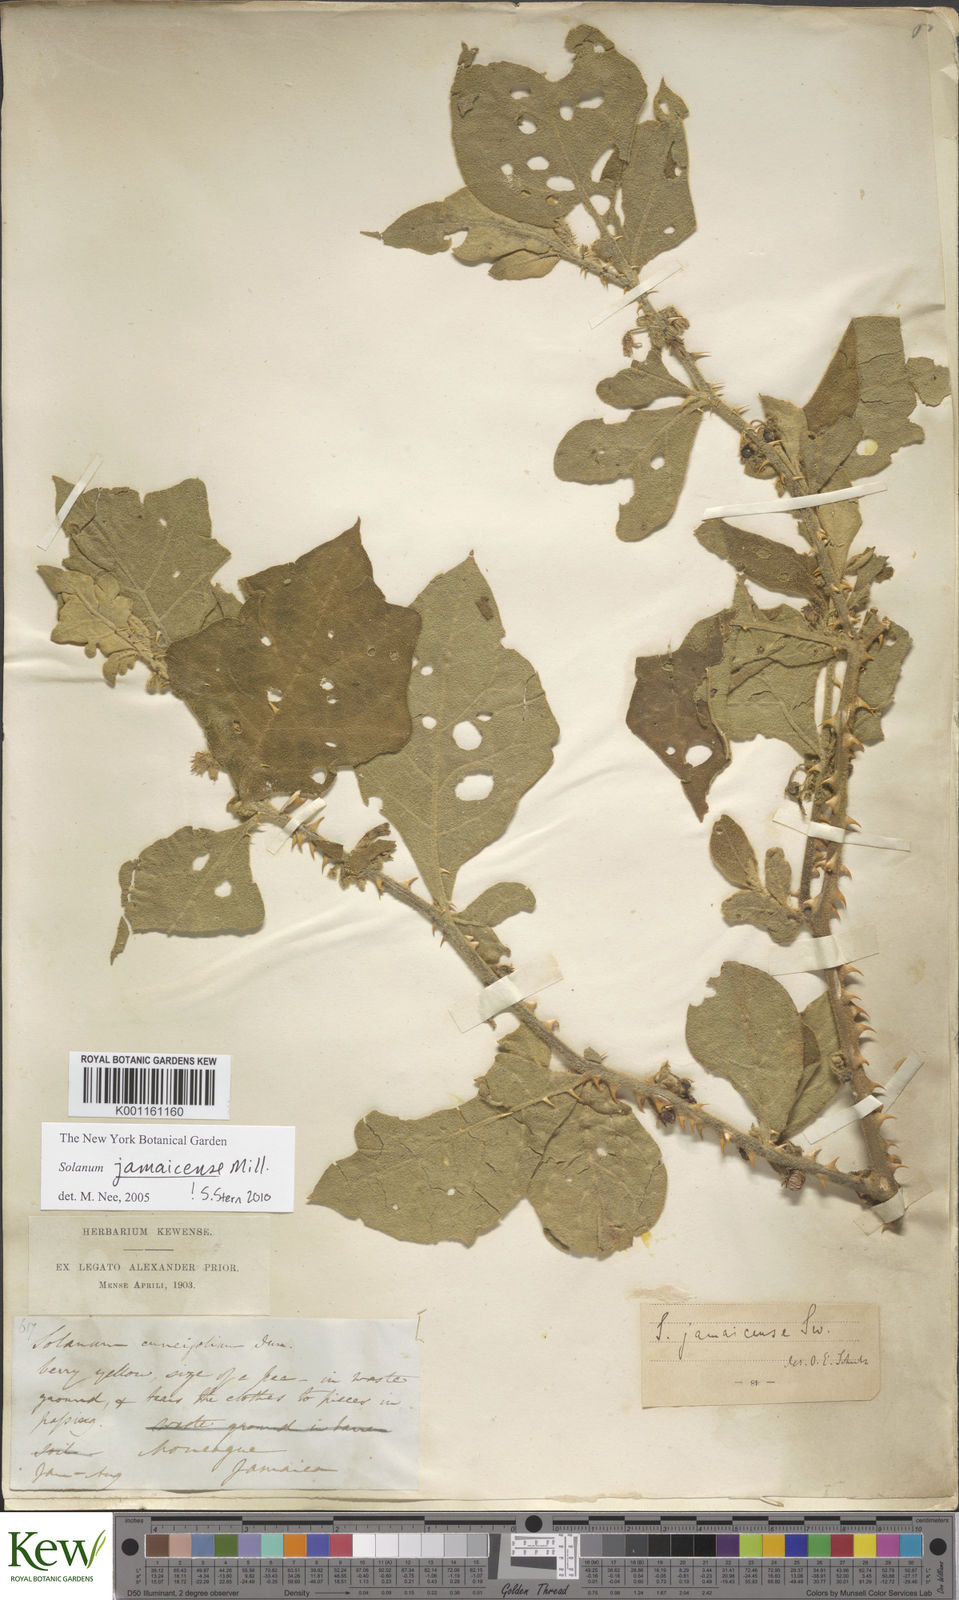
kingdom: Plantae
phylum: Tracheophyta
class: Magnoliopsida
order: Solanales
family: Solanaceae
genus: Solanum
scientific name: Solanum jamaicense
